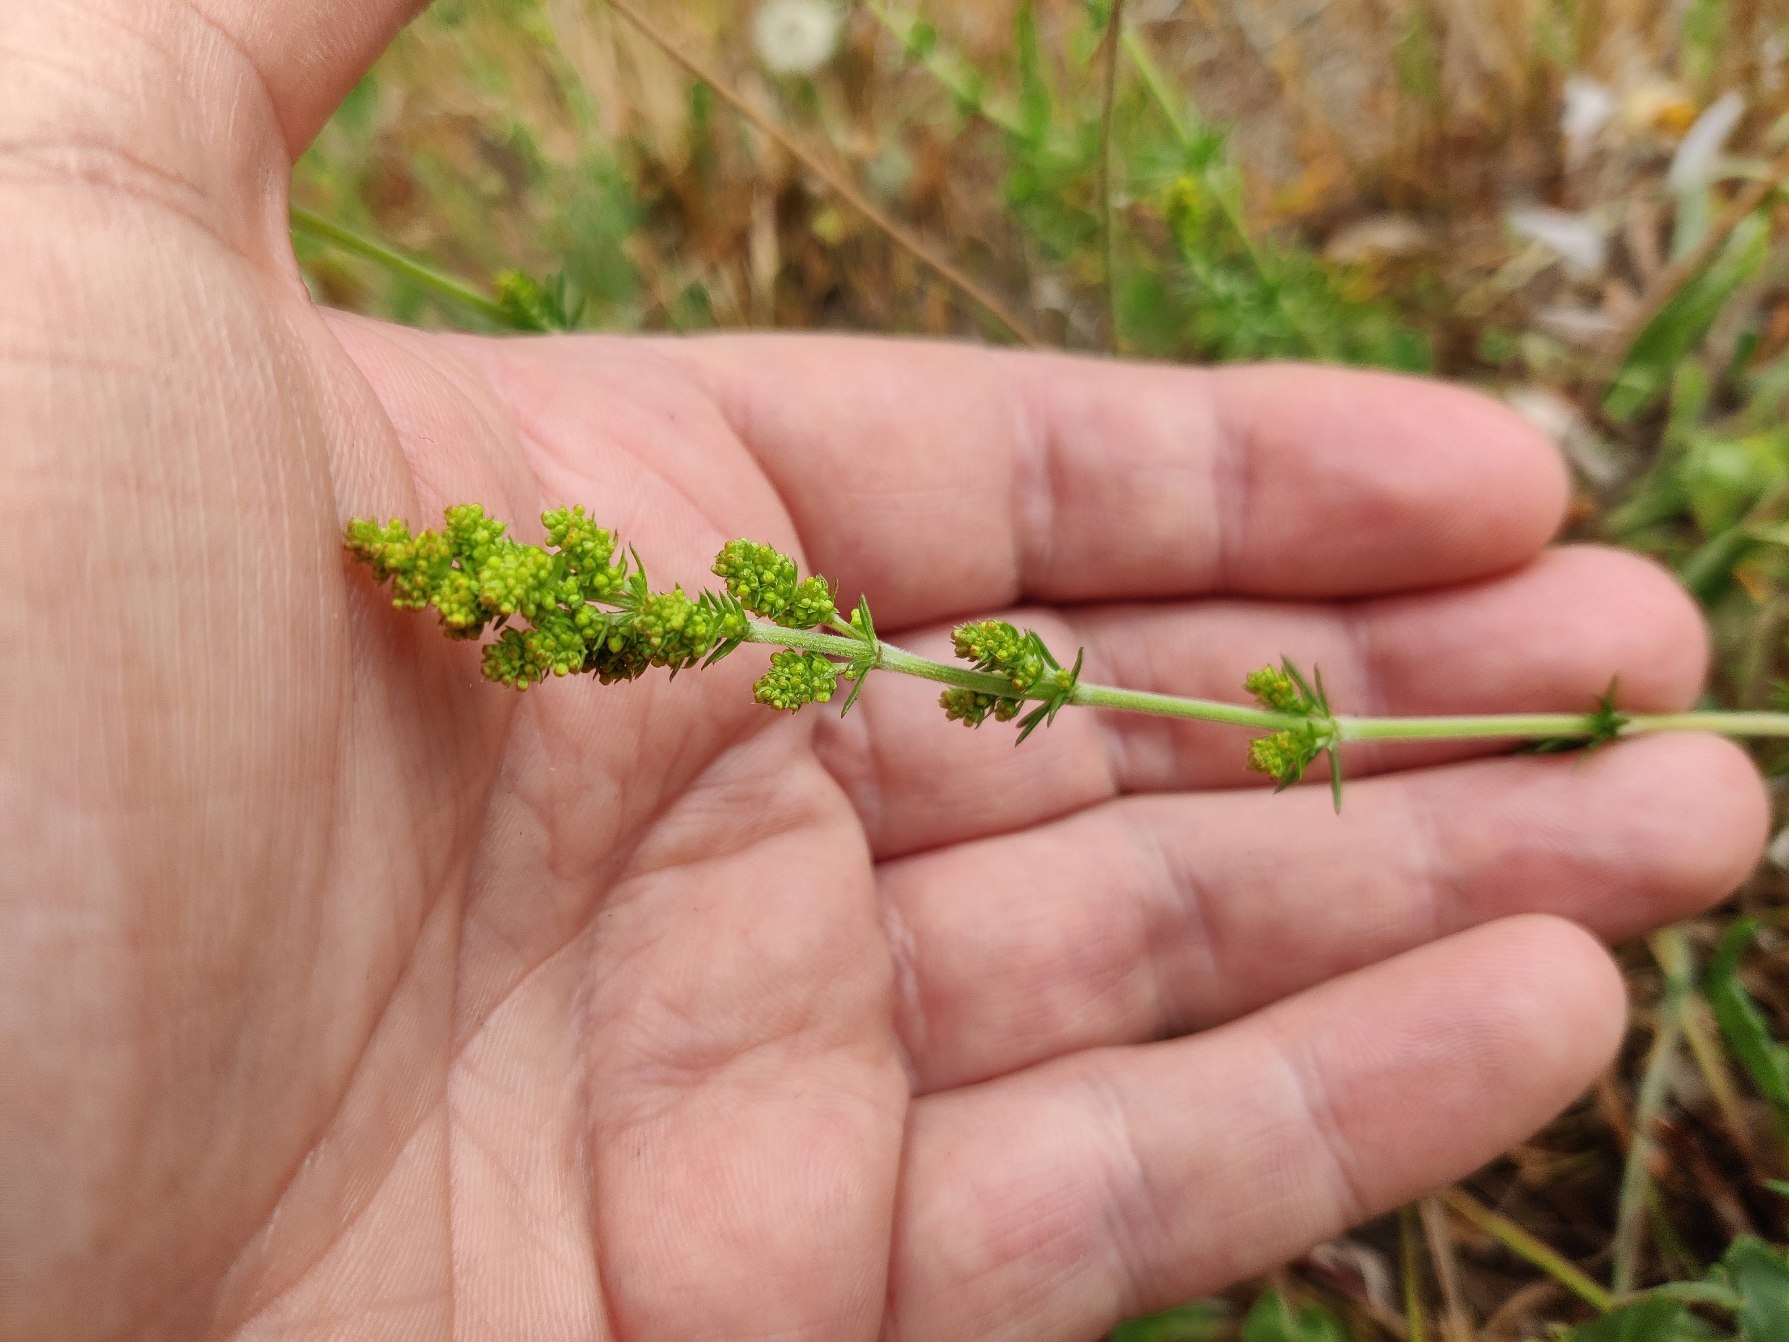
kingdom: Plantae
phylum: Tracheophyta
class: Magnoliopsida
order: Gentianales
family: Rubiaceae
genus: Galium
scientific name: Galium verum
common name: Gul snerre
